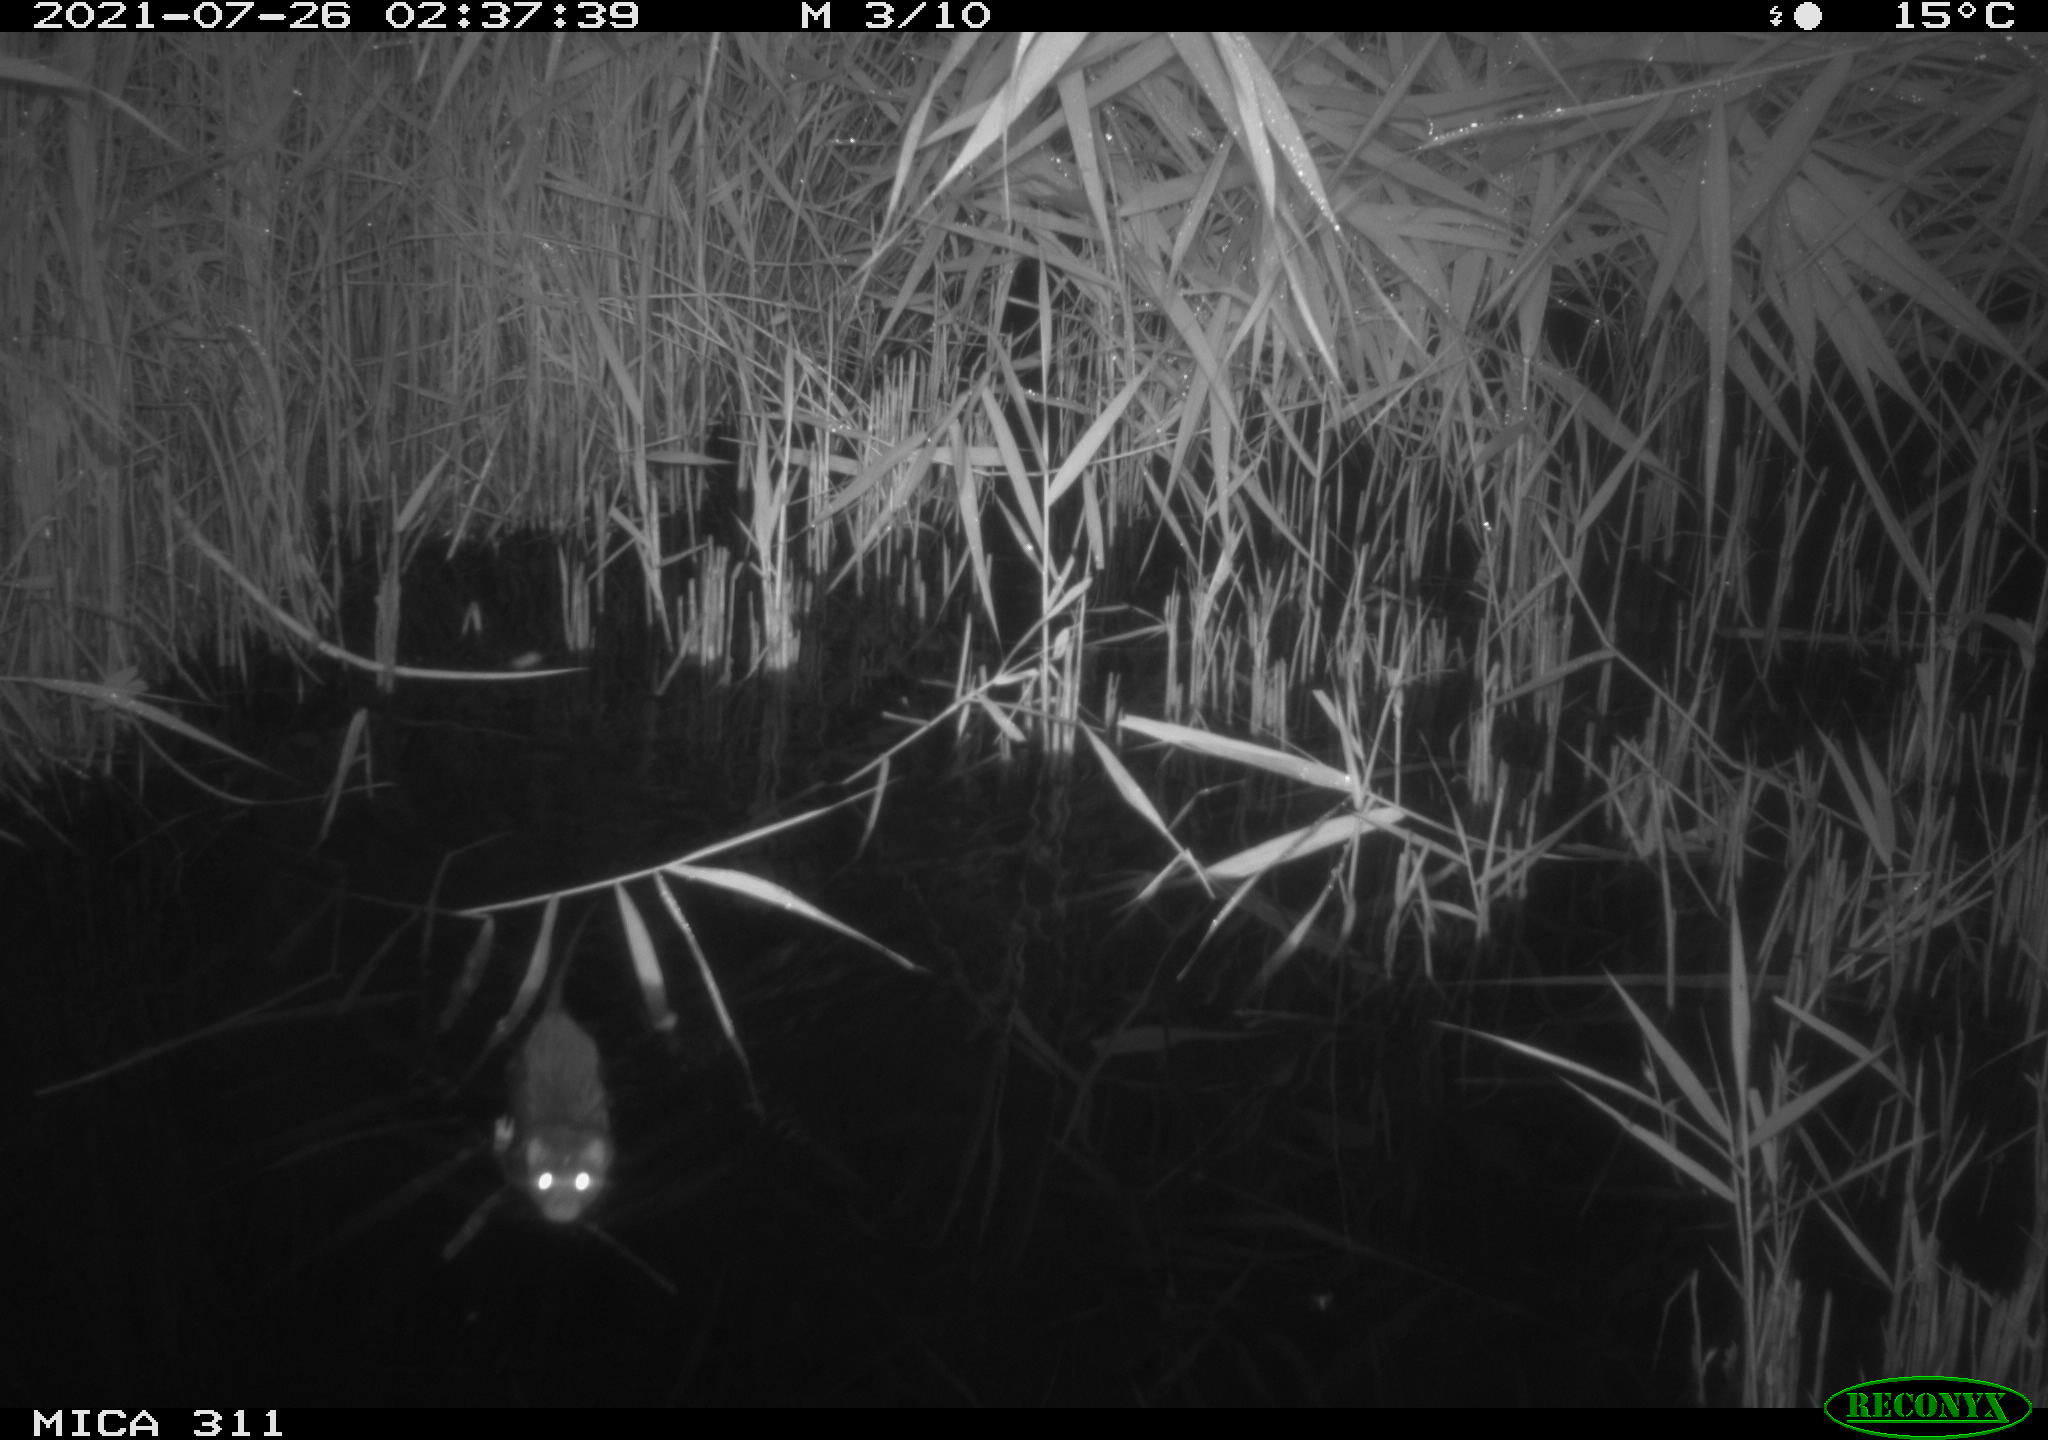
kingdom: Animalia
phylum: Chordata
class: Mammalia
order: Rodentia
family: Muridae
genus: Rattus
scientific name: Rattus norvegicus
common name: Brown rat
